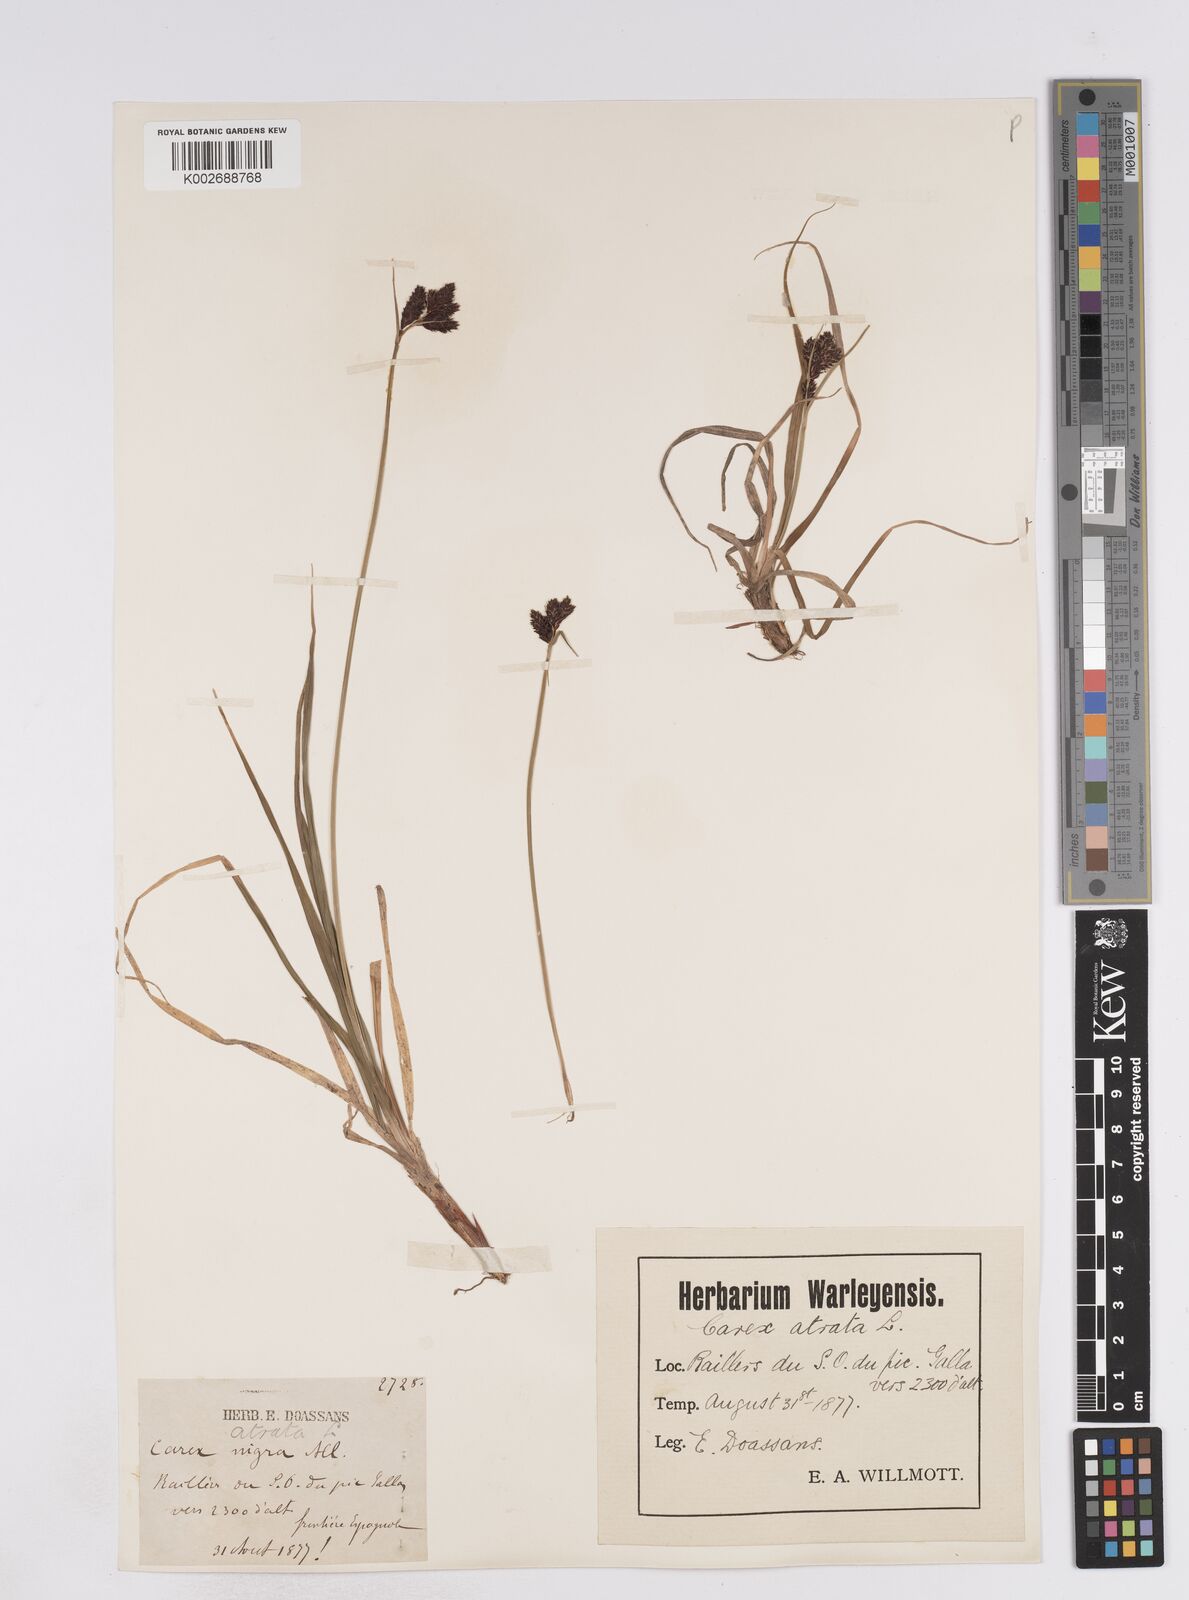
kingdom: Plantae
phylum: Tracheophyta
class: Liliopsida
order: Poales
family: Cyperaceae
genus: Carex
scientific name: Carex parviflora
